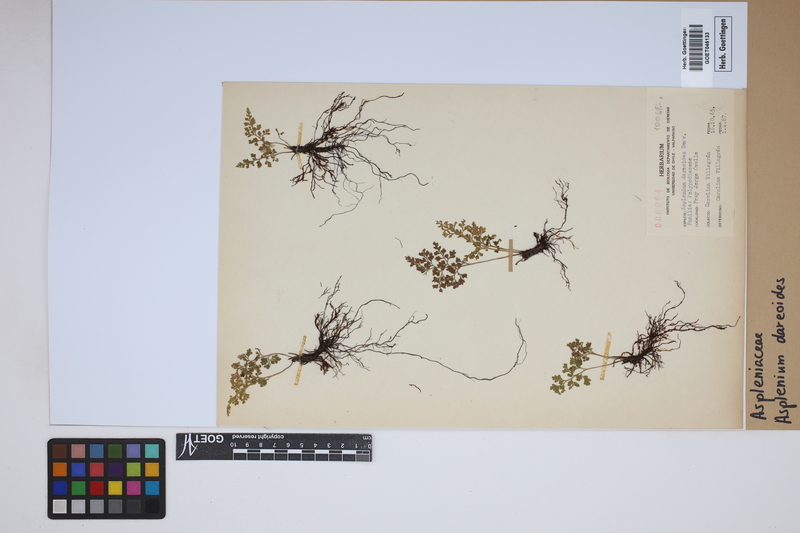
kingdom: Plantae
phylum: Tracheophyta
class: Polypodiopsida
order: Polypodiales
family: Aspleniaceae
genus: Asplenium
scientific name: Asplenium dareoides
